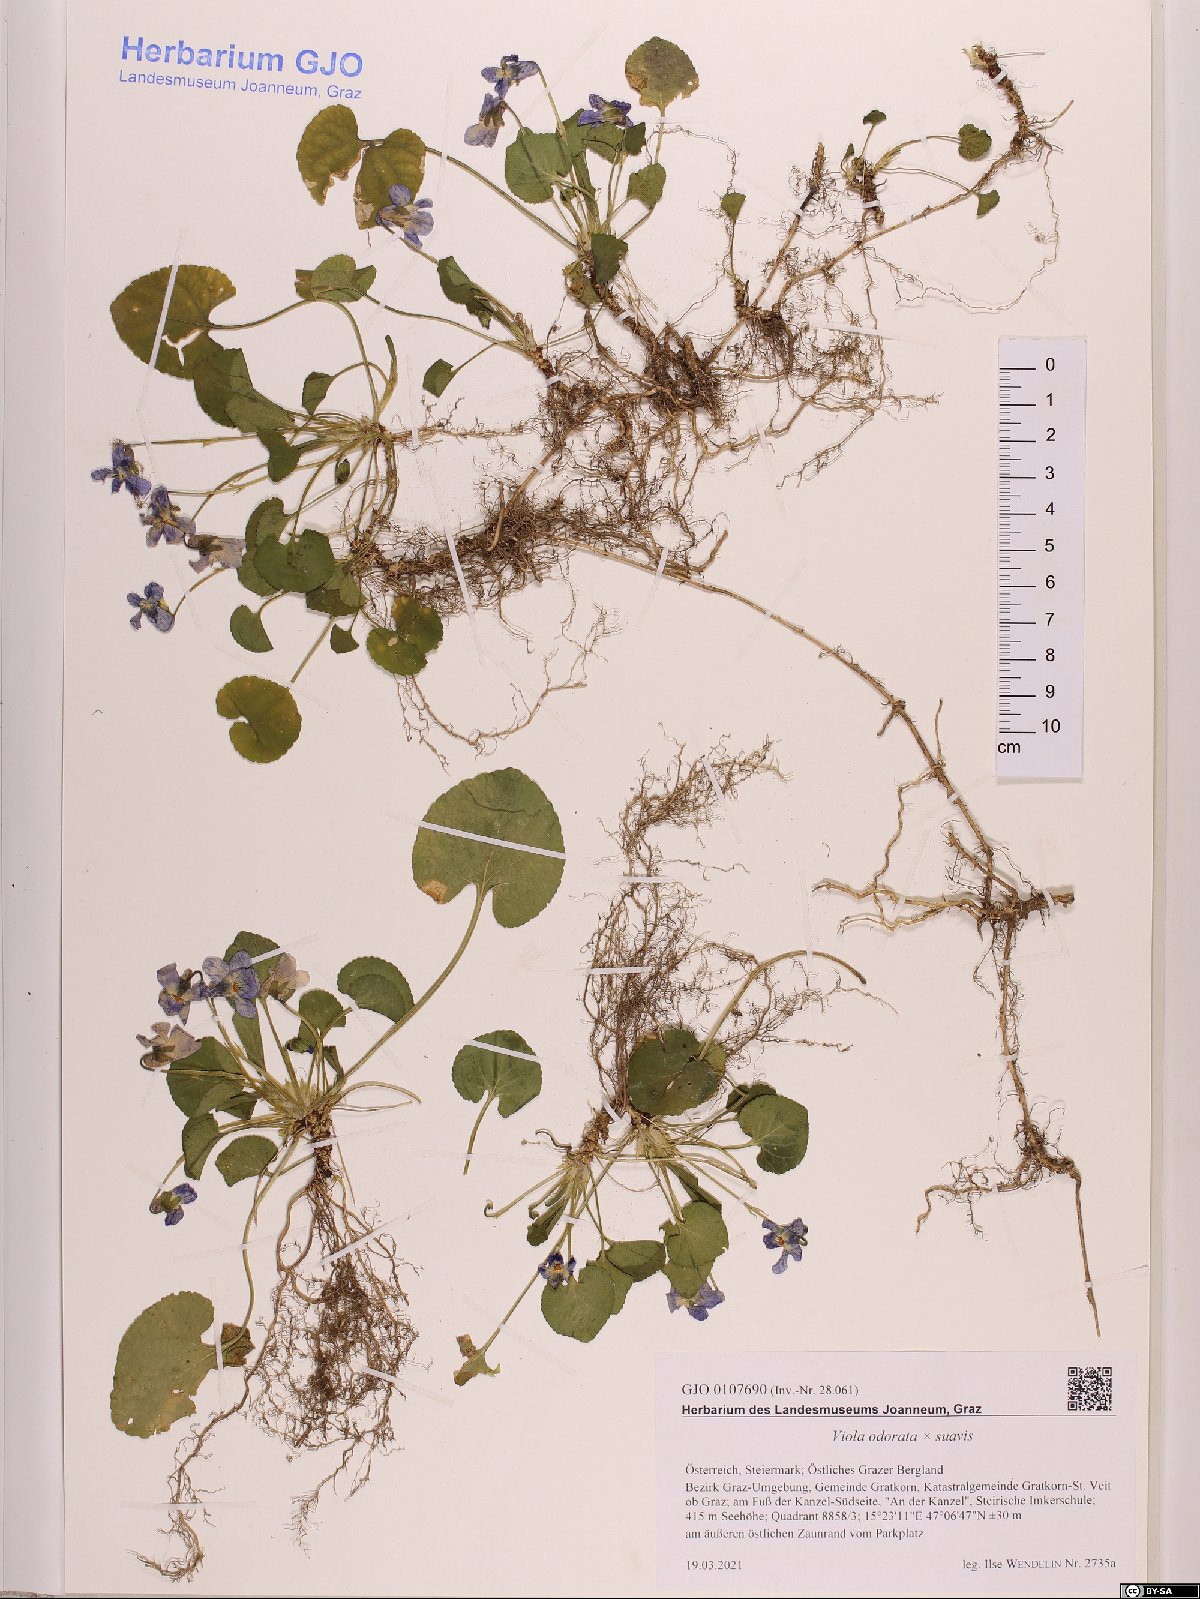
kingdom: Plantae
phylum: Tracheophyta
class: Magnoliopsida
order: Malpighiales
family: Violaceae
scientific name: Violaceae
